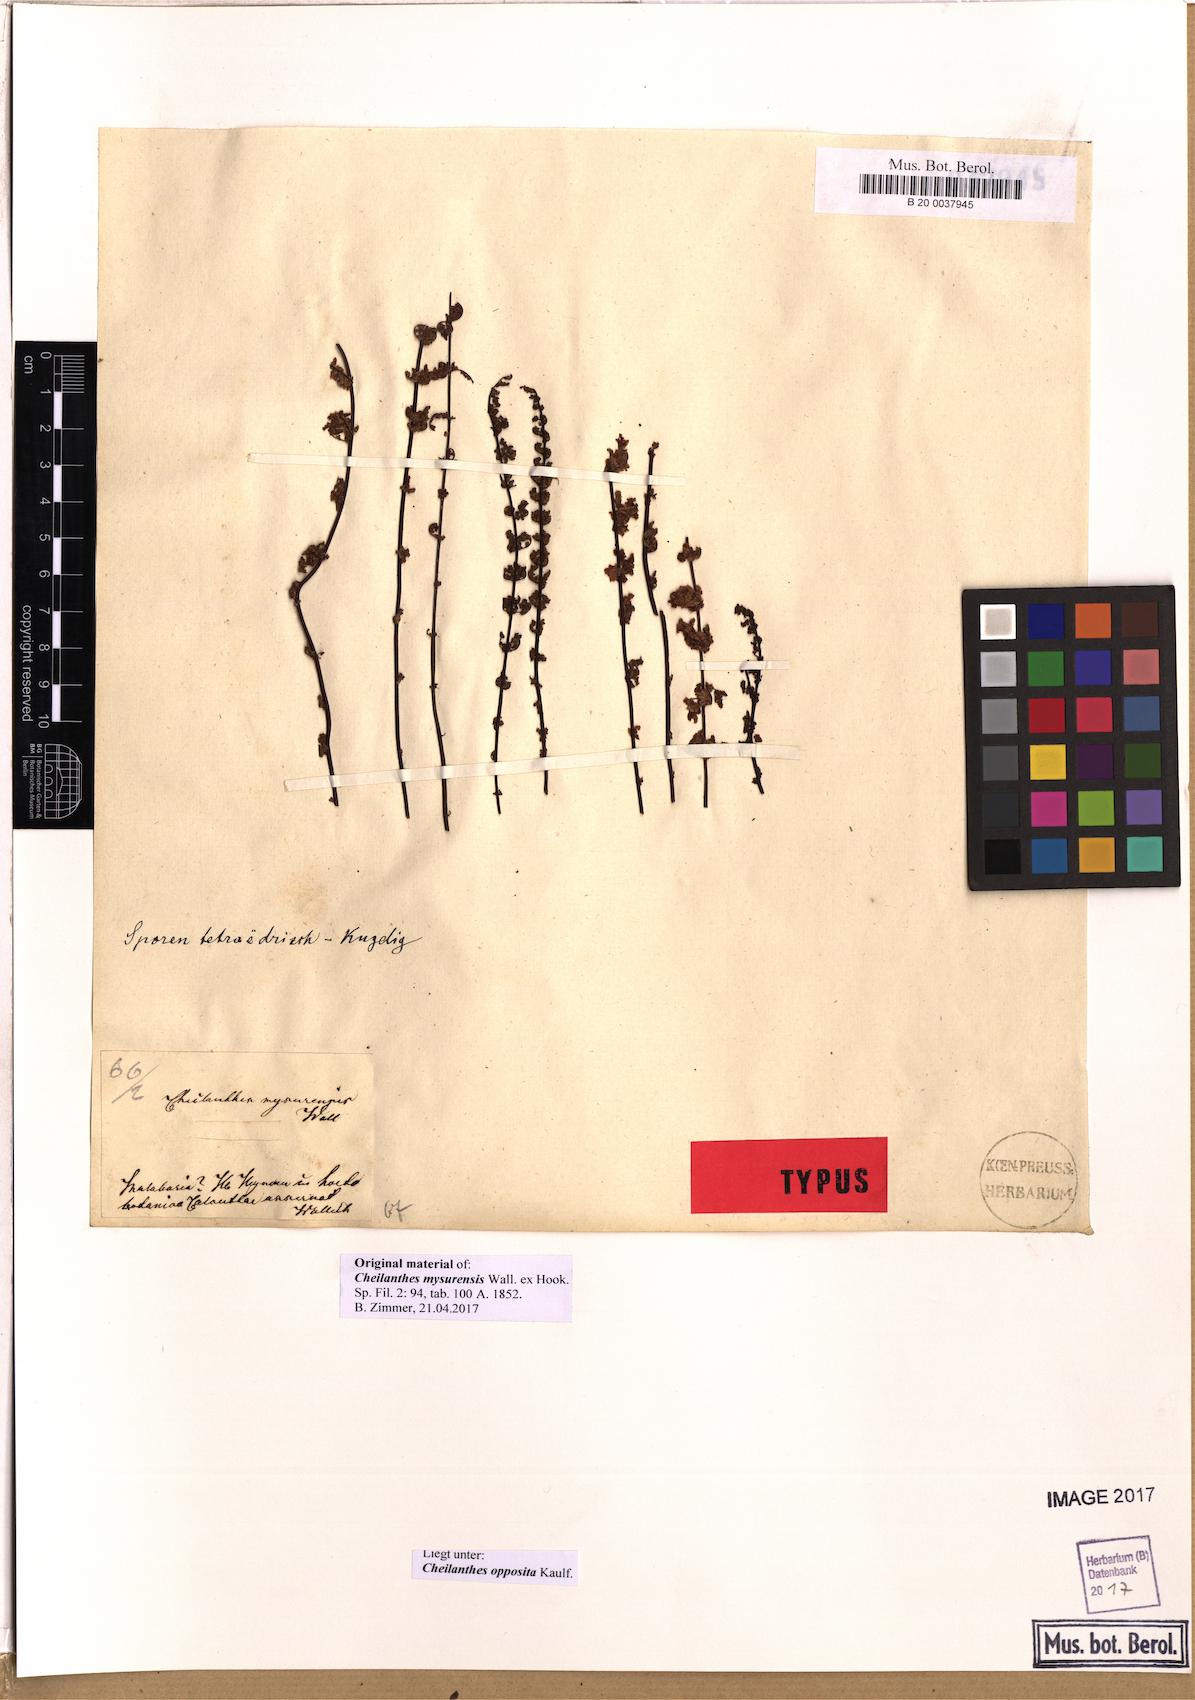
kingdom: Plantae
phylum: Tracheophyta
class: Polypodiopsida
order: Polypodiales
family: Pteridaceae
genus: Oeosporangium
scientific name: Oeosporangium elegans
